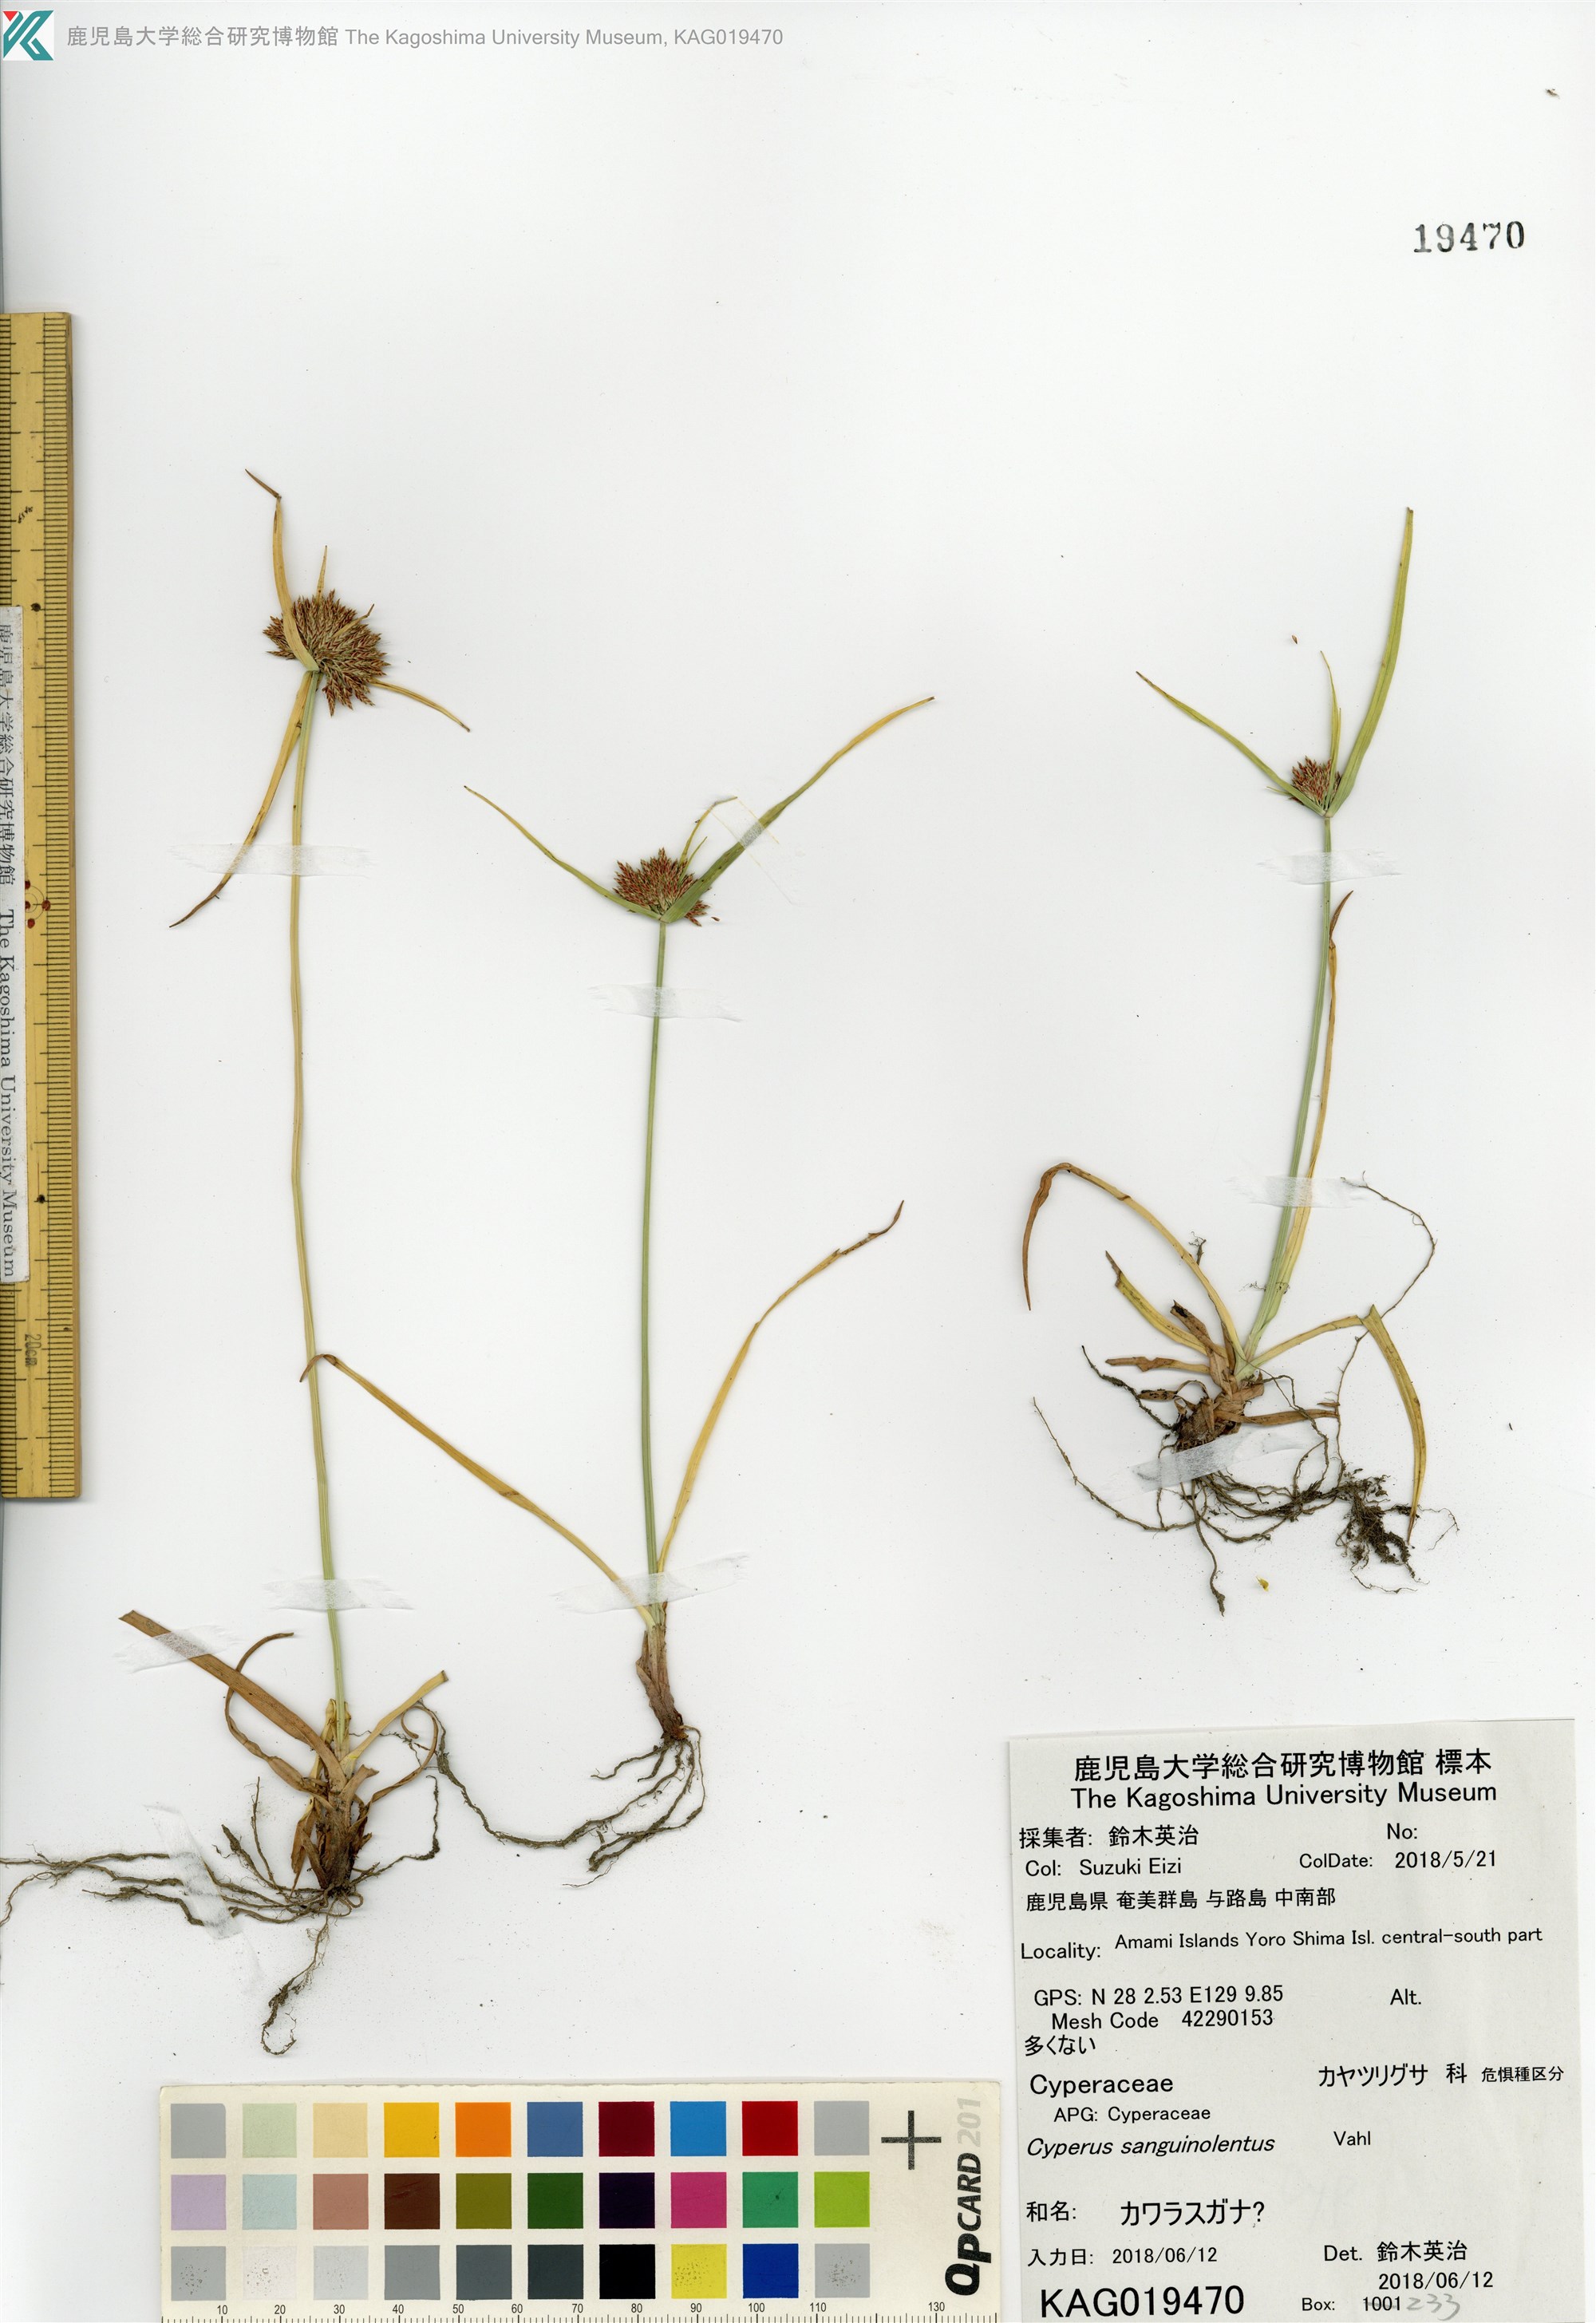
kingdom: Plantae
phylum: Tracheophyta
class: Liliopsida
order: Poales
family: Cyperaceae
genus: Cyperus
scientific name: Cyperus polystachyos
